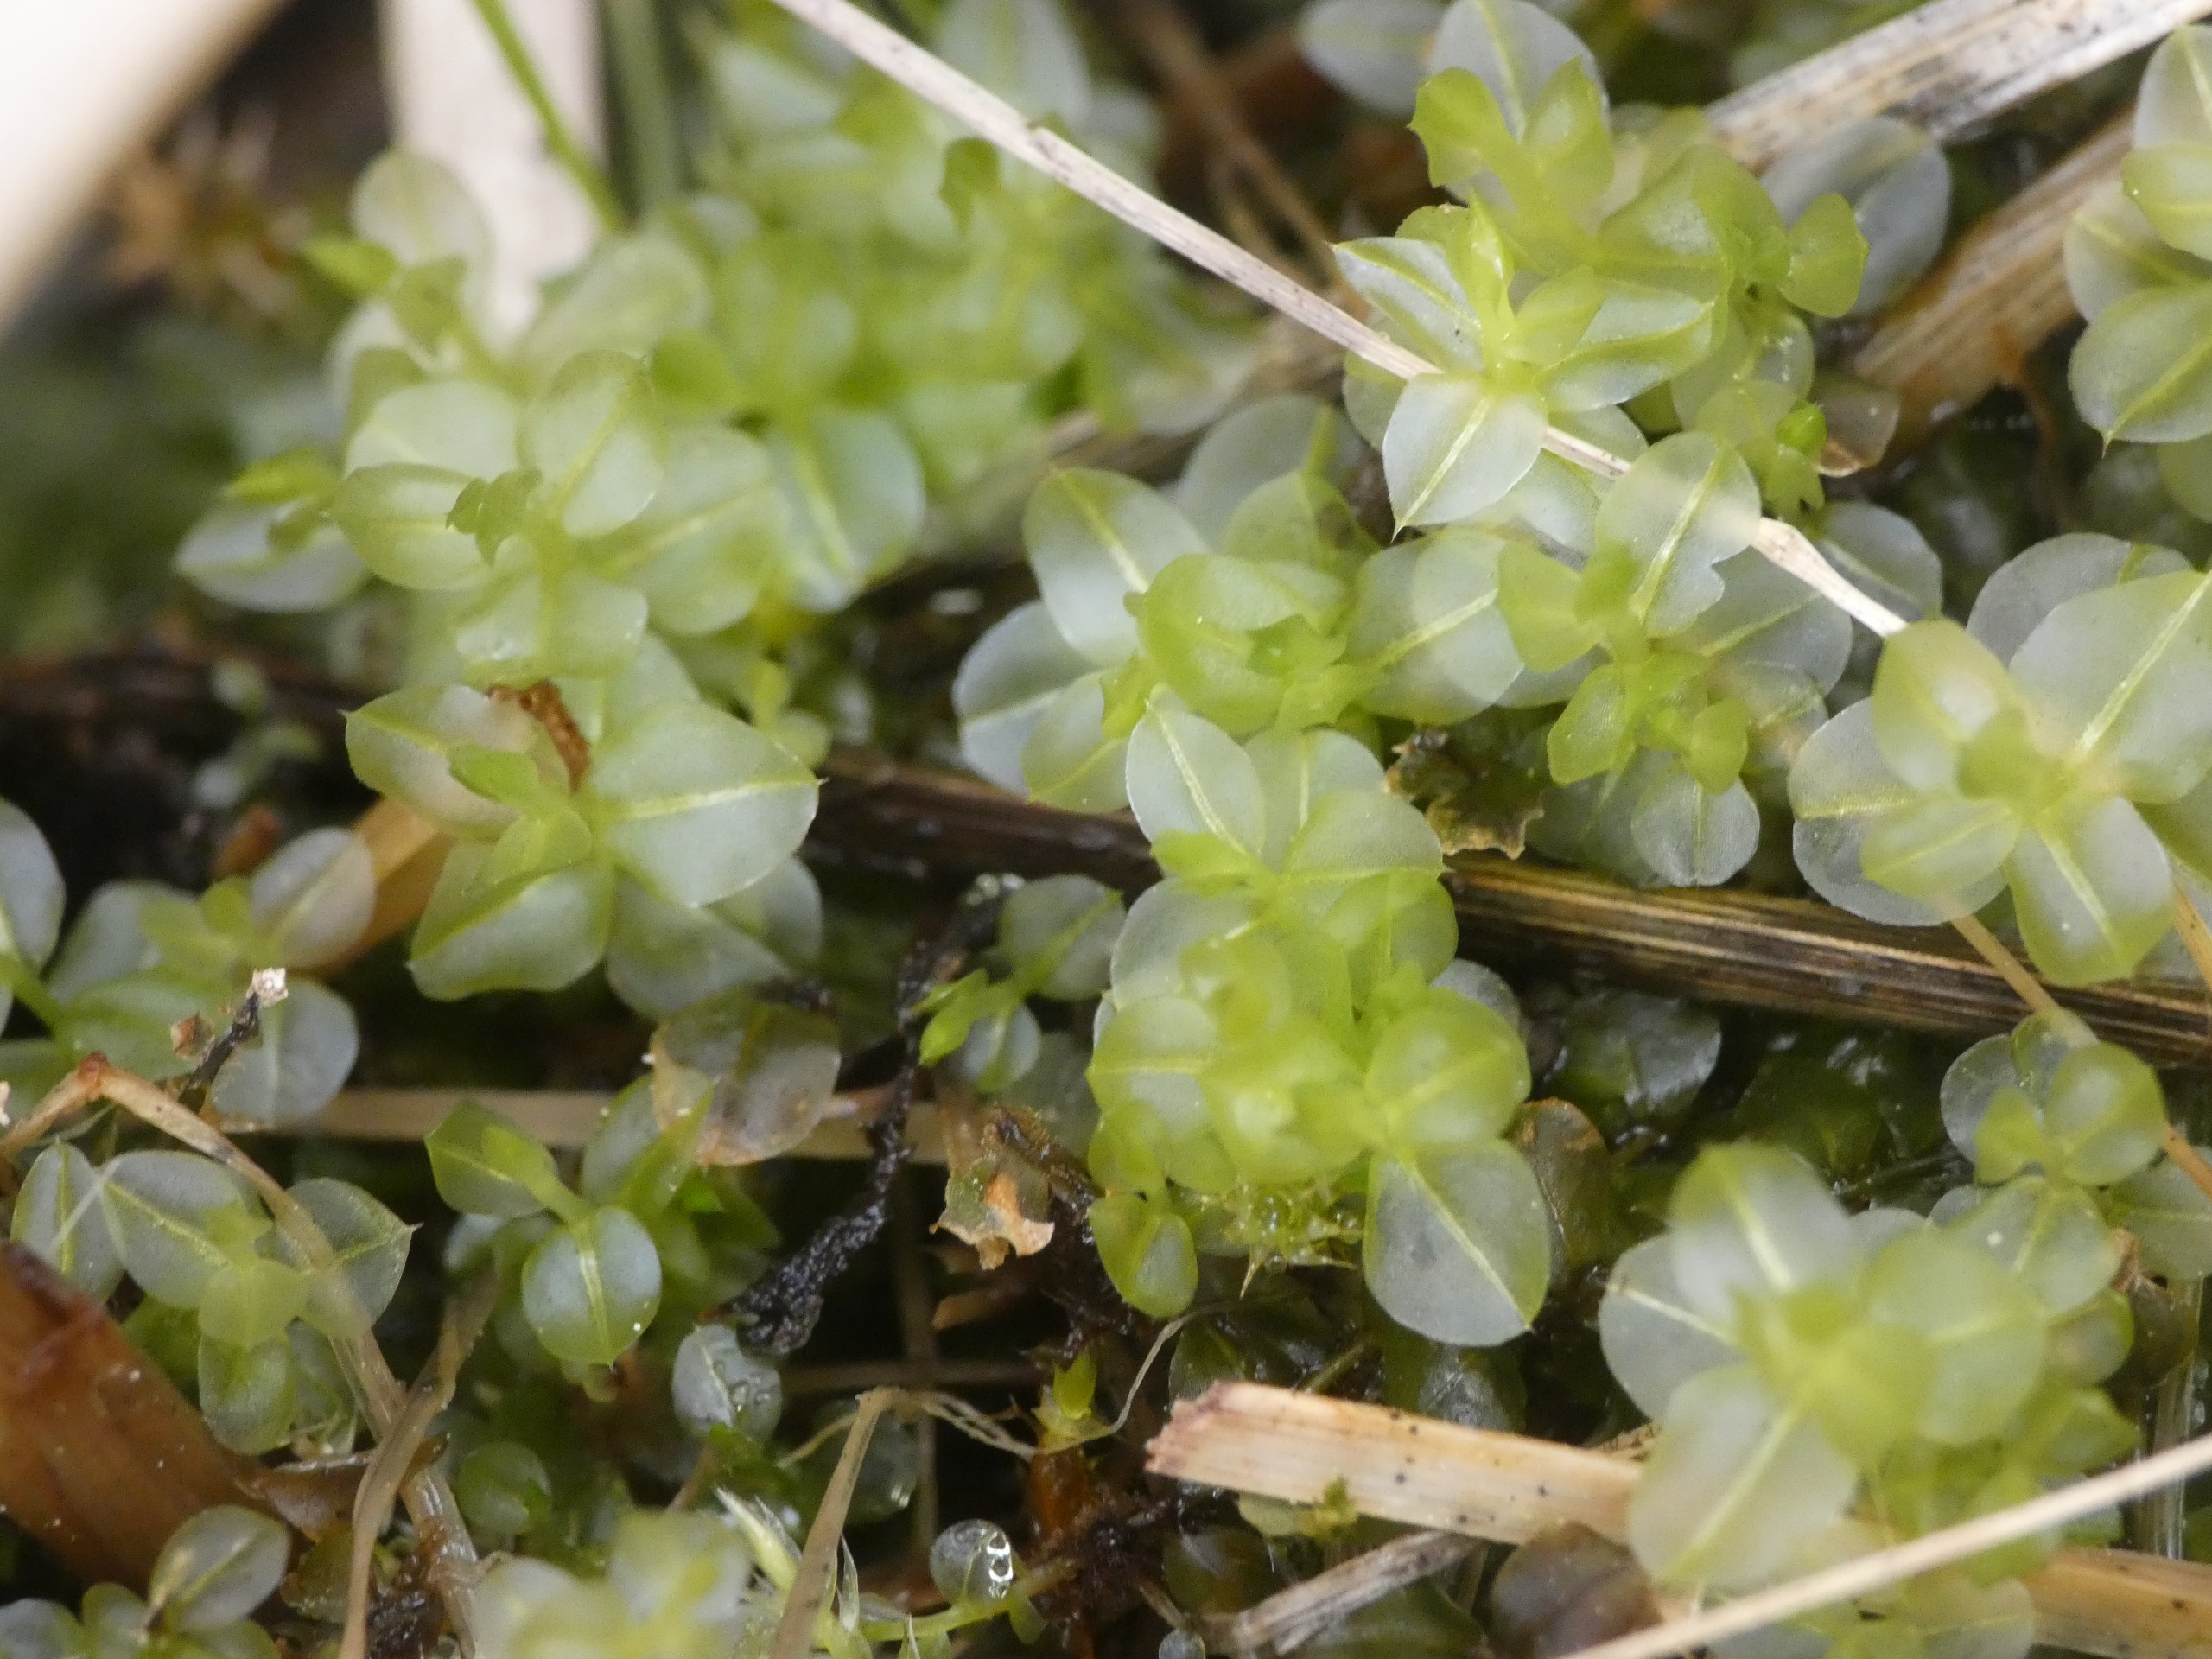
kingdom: Plantae
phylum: Bryophyta
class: Bryopsida
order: Bryales
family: Mniaceae
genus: Plagiomnium
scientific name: Plagiomnium
